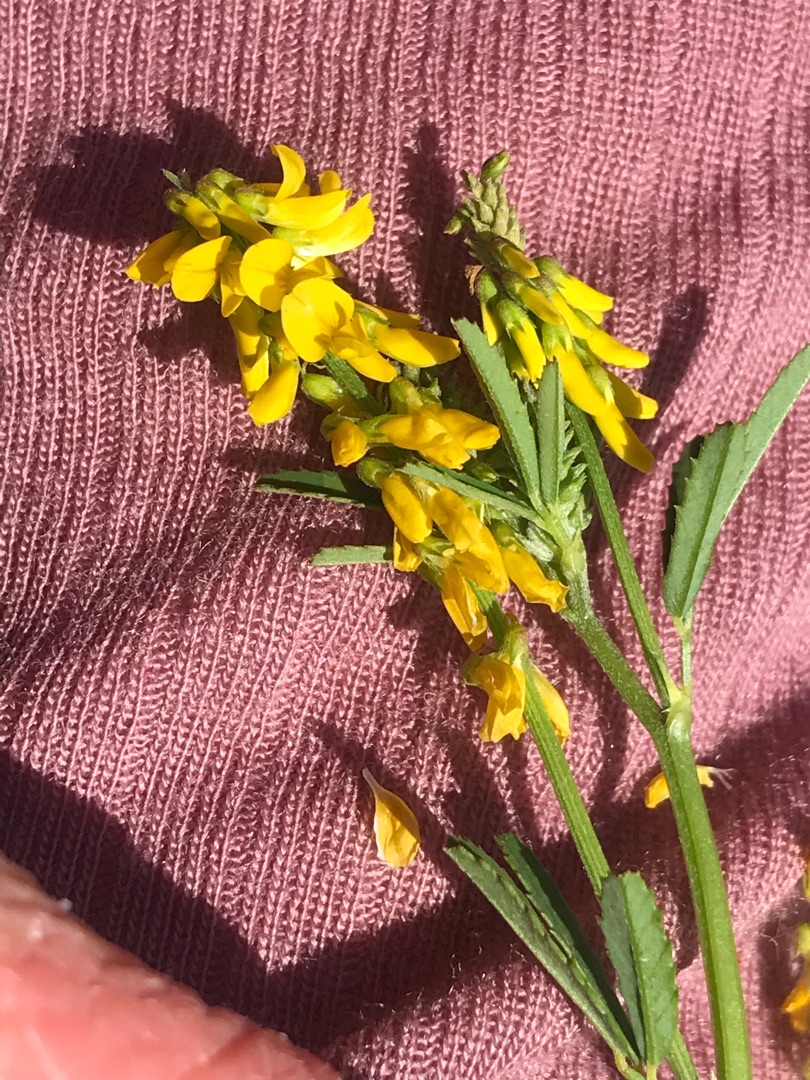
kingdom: Plantae
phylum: Tracheophyta
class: Magnoliopsida
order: Fabales
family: Fabaceae
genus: Melilotus
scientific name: Melilotus
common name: Stenkløverslægten
